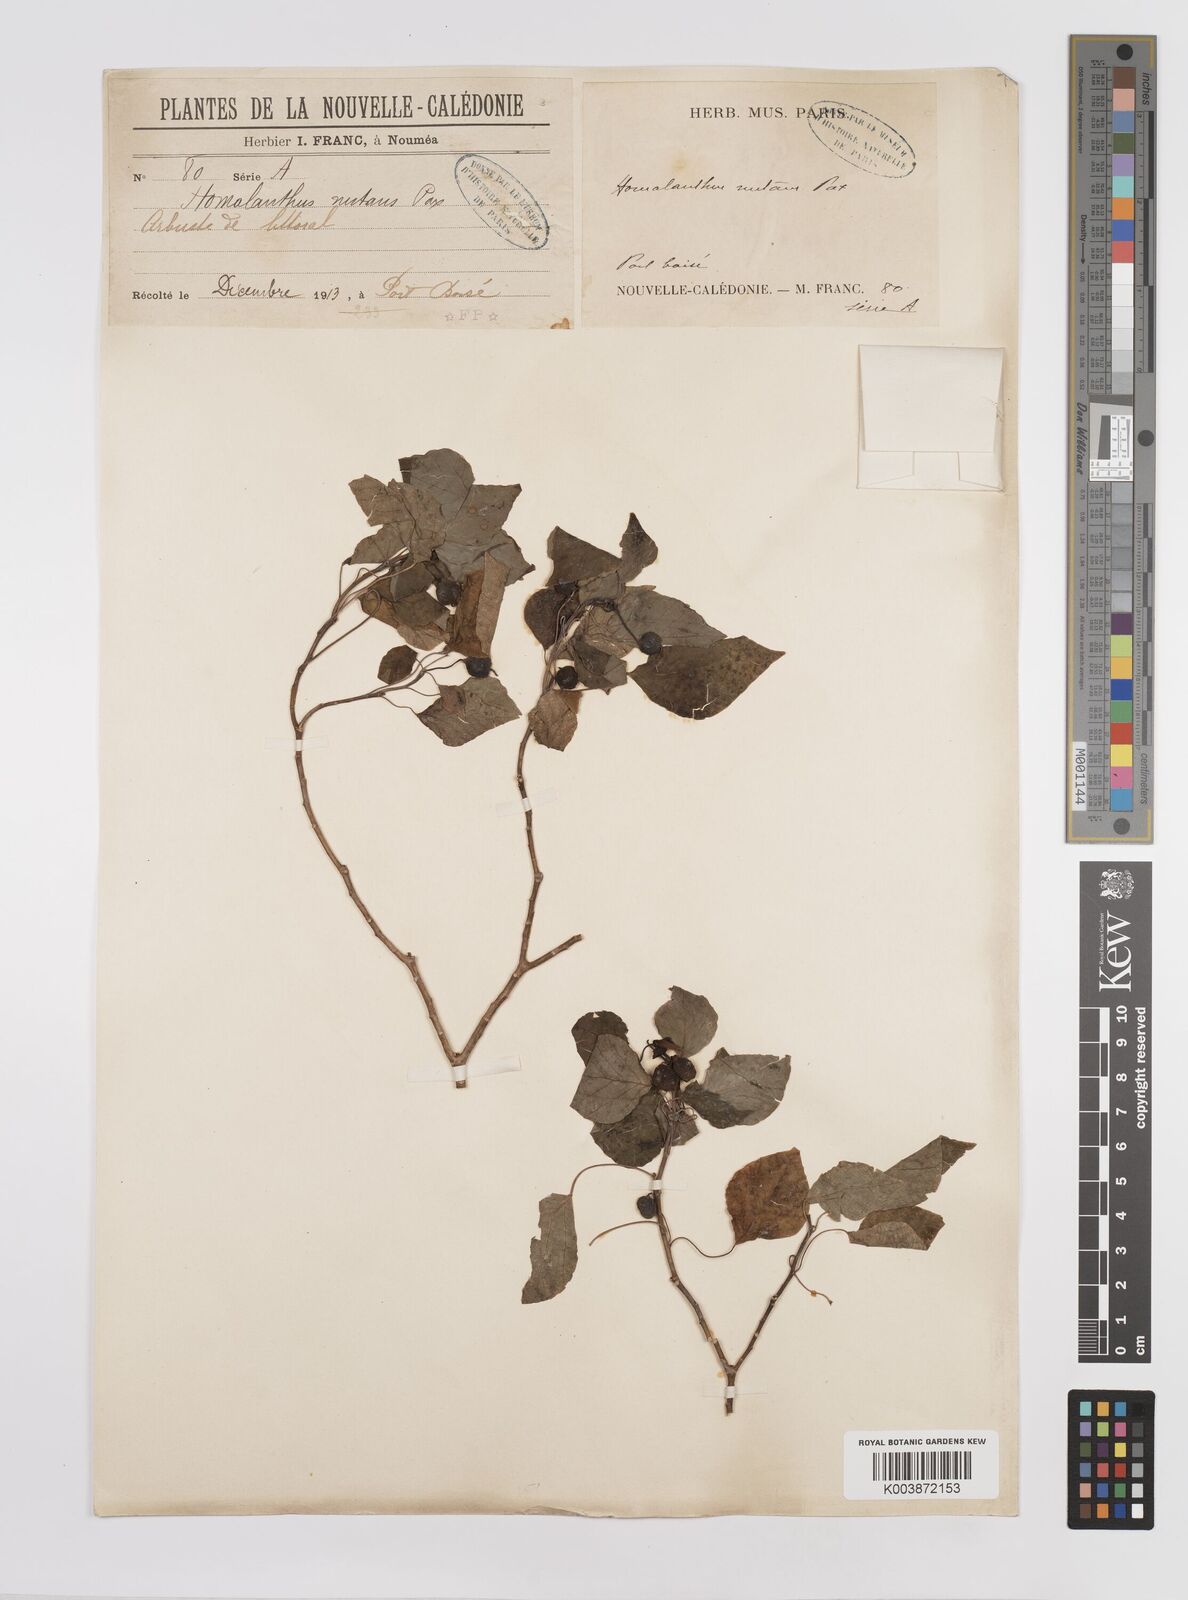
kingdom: Plantae
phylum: Tracheophyta
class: Magnoliopsida
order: Malpighiales
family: Euphorbiaceae
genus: Homalanthus
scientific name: Homalanthus nutans
